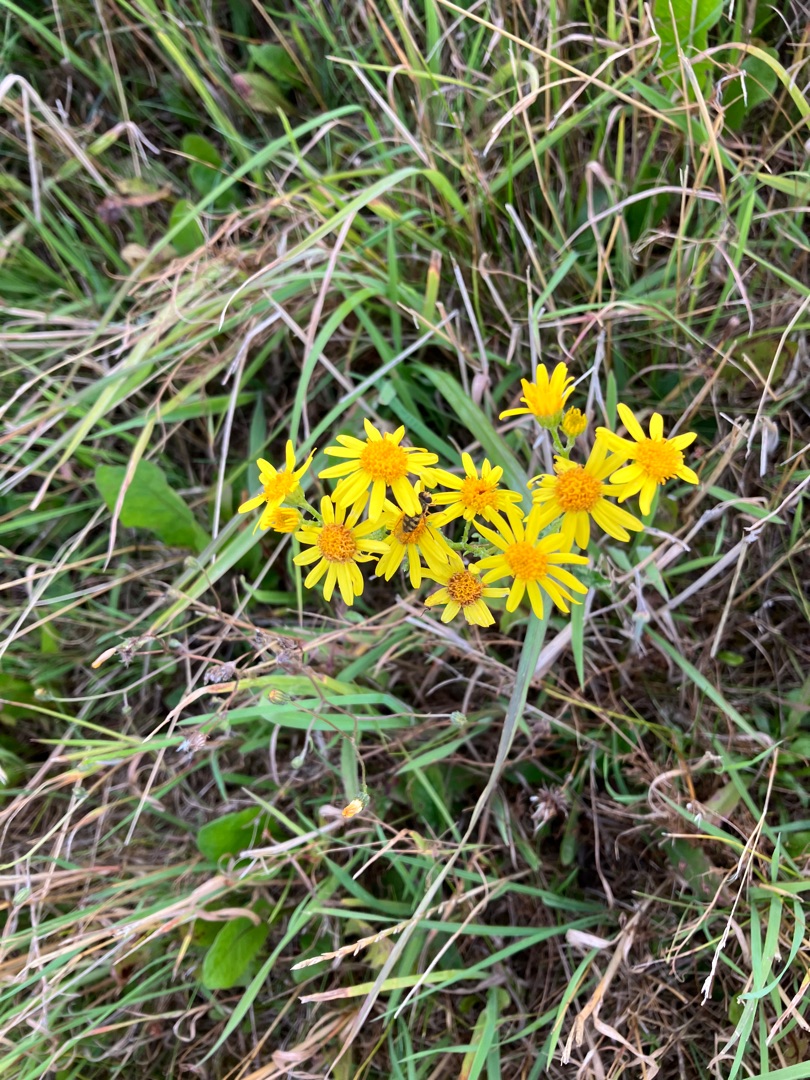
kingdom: Plantae
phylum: Tracheophyta
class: Magnoliopsida
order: Asterales
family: Asteraceae
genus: Senecio
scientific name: Senecio
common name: Brandbægerslægten
